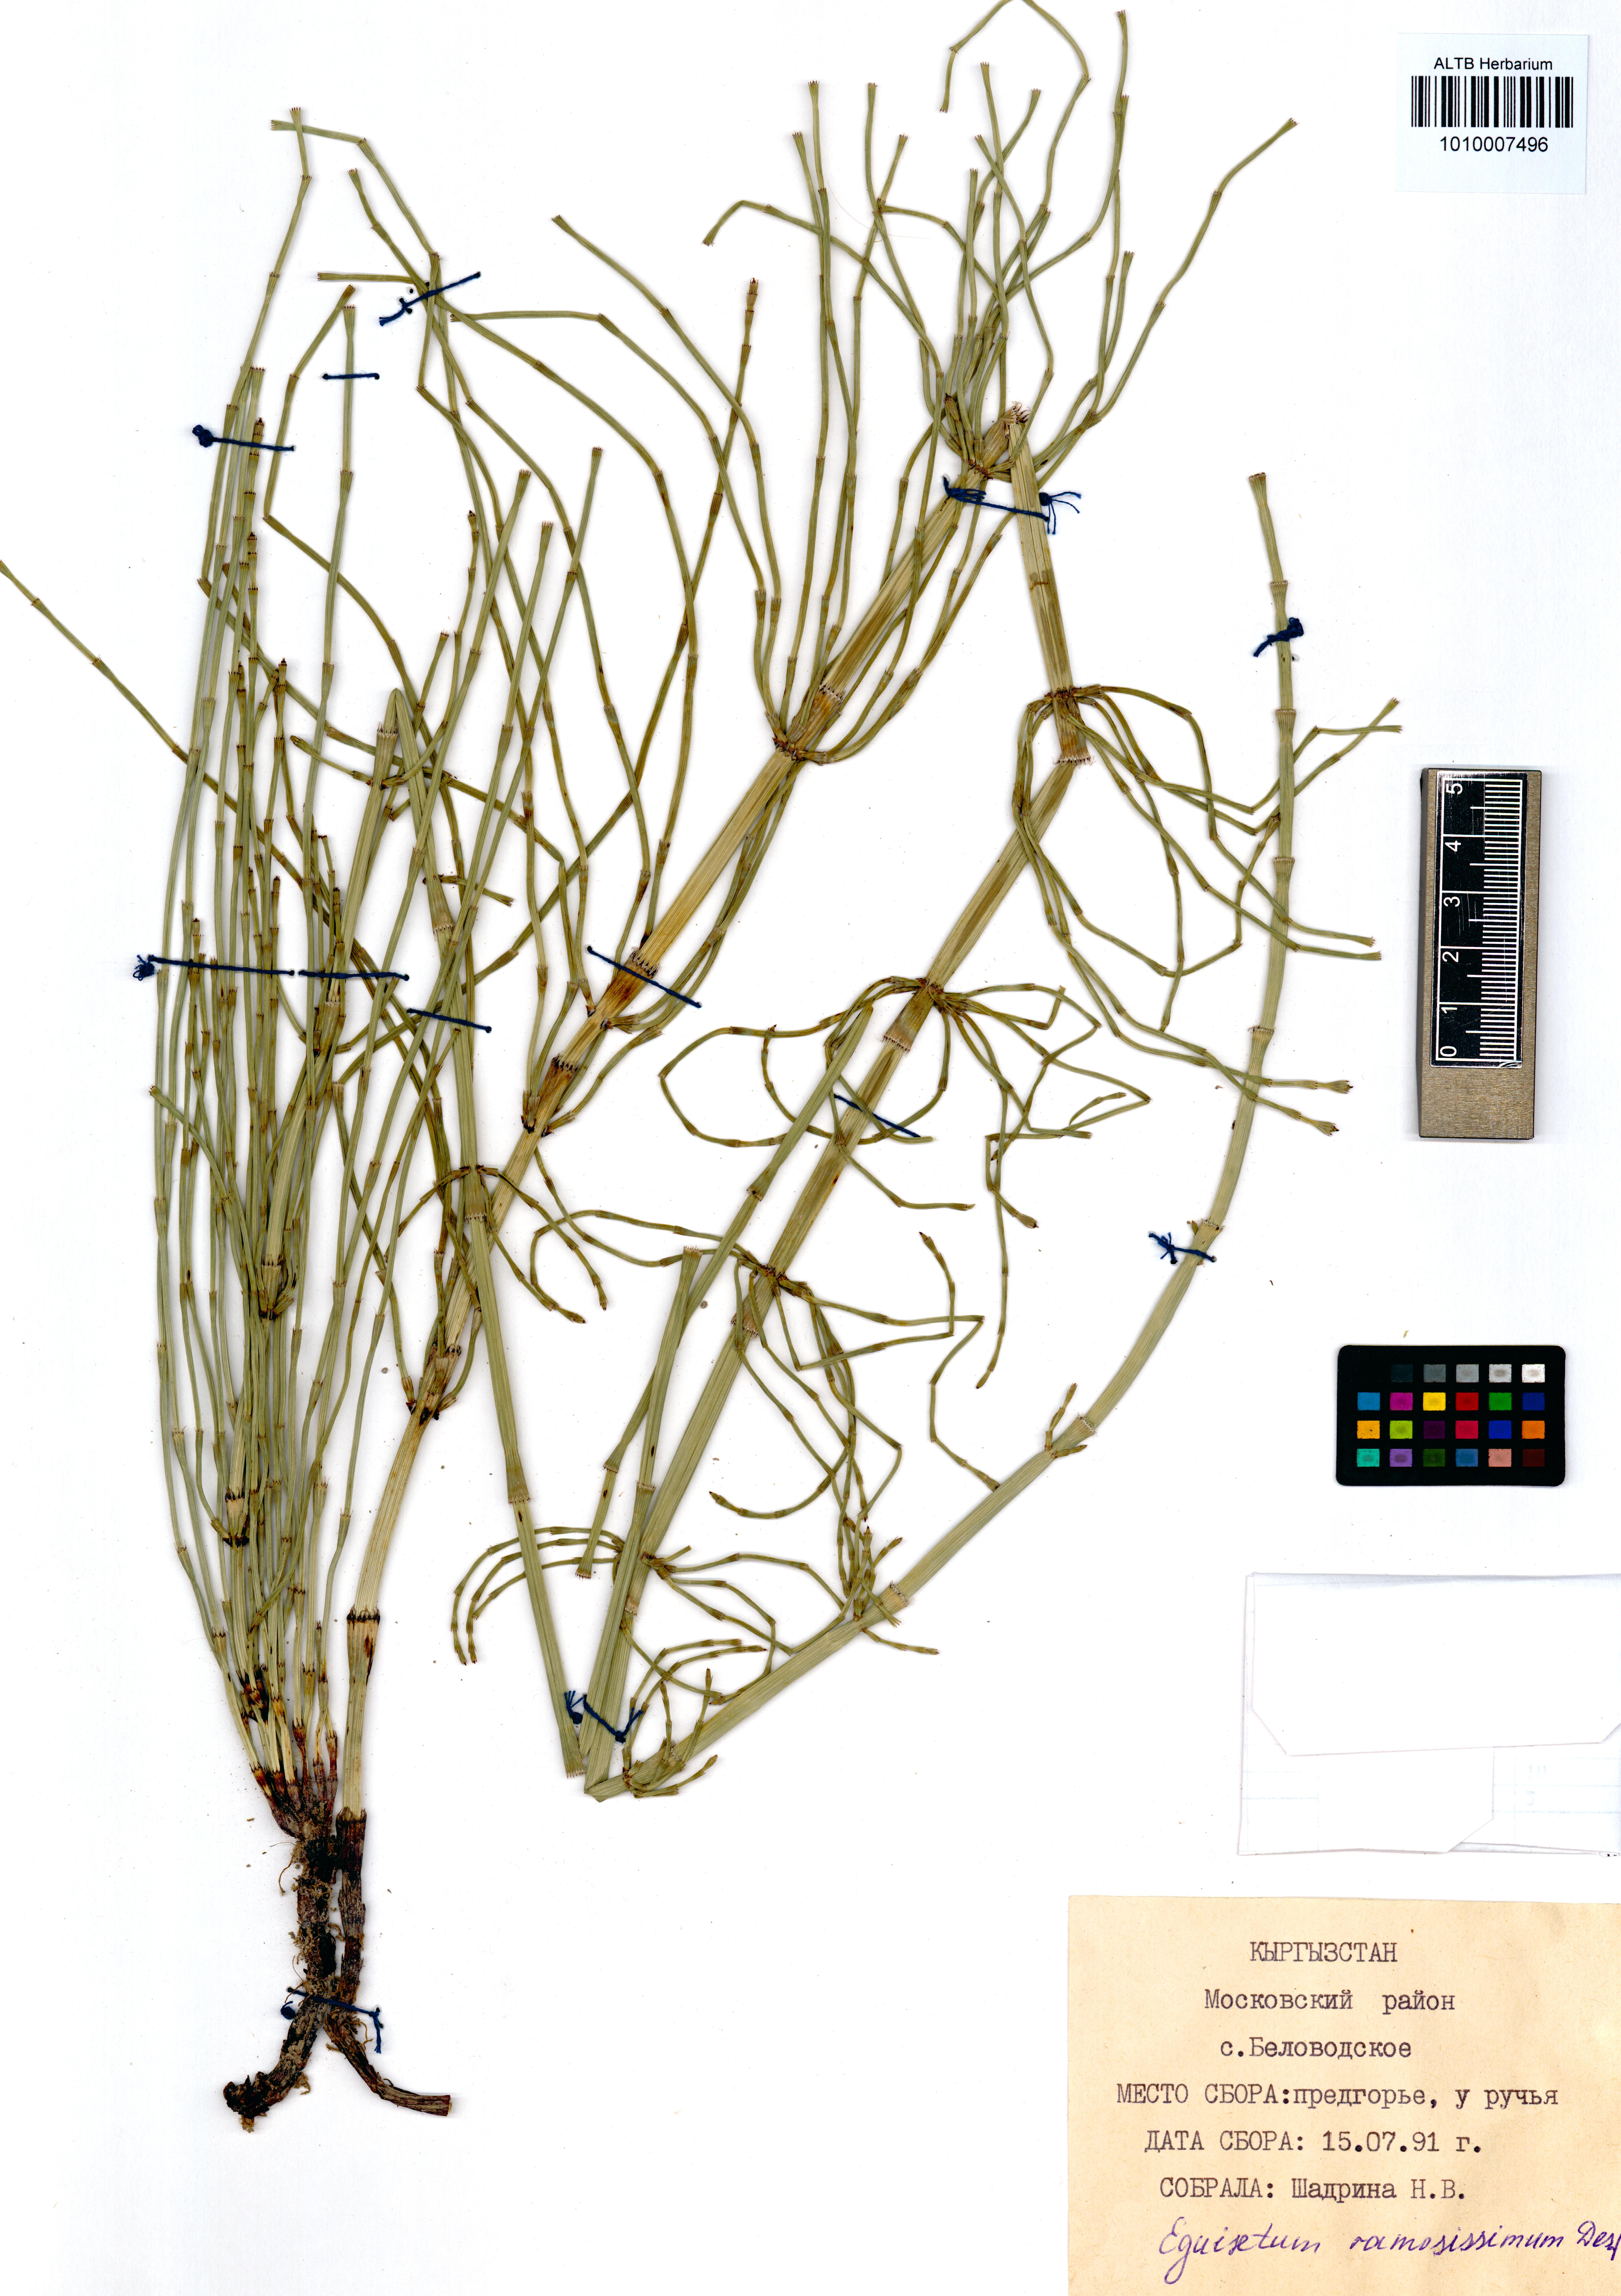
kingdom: Plantae
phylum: Tracheophyta
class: Polypodiopsida
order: Equisetales
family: Equisetaceae
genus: Equisetum
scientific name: Equisetum ramosissimum
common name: Branched horsetail
